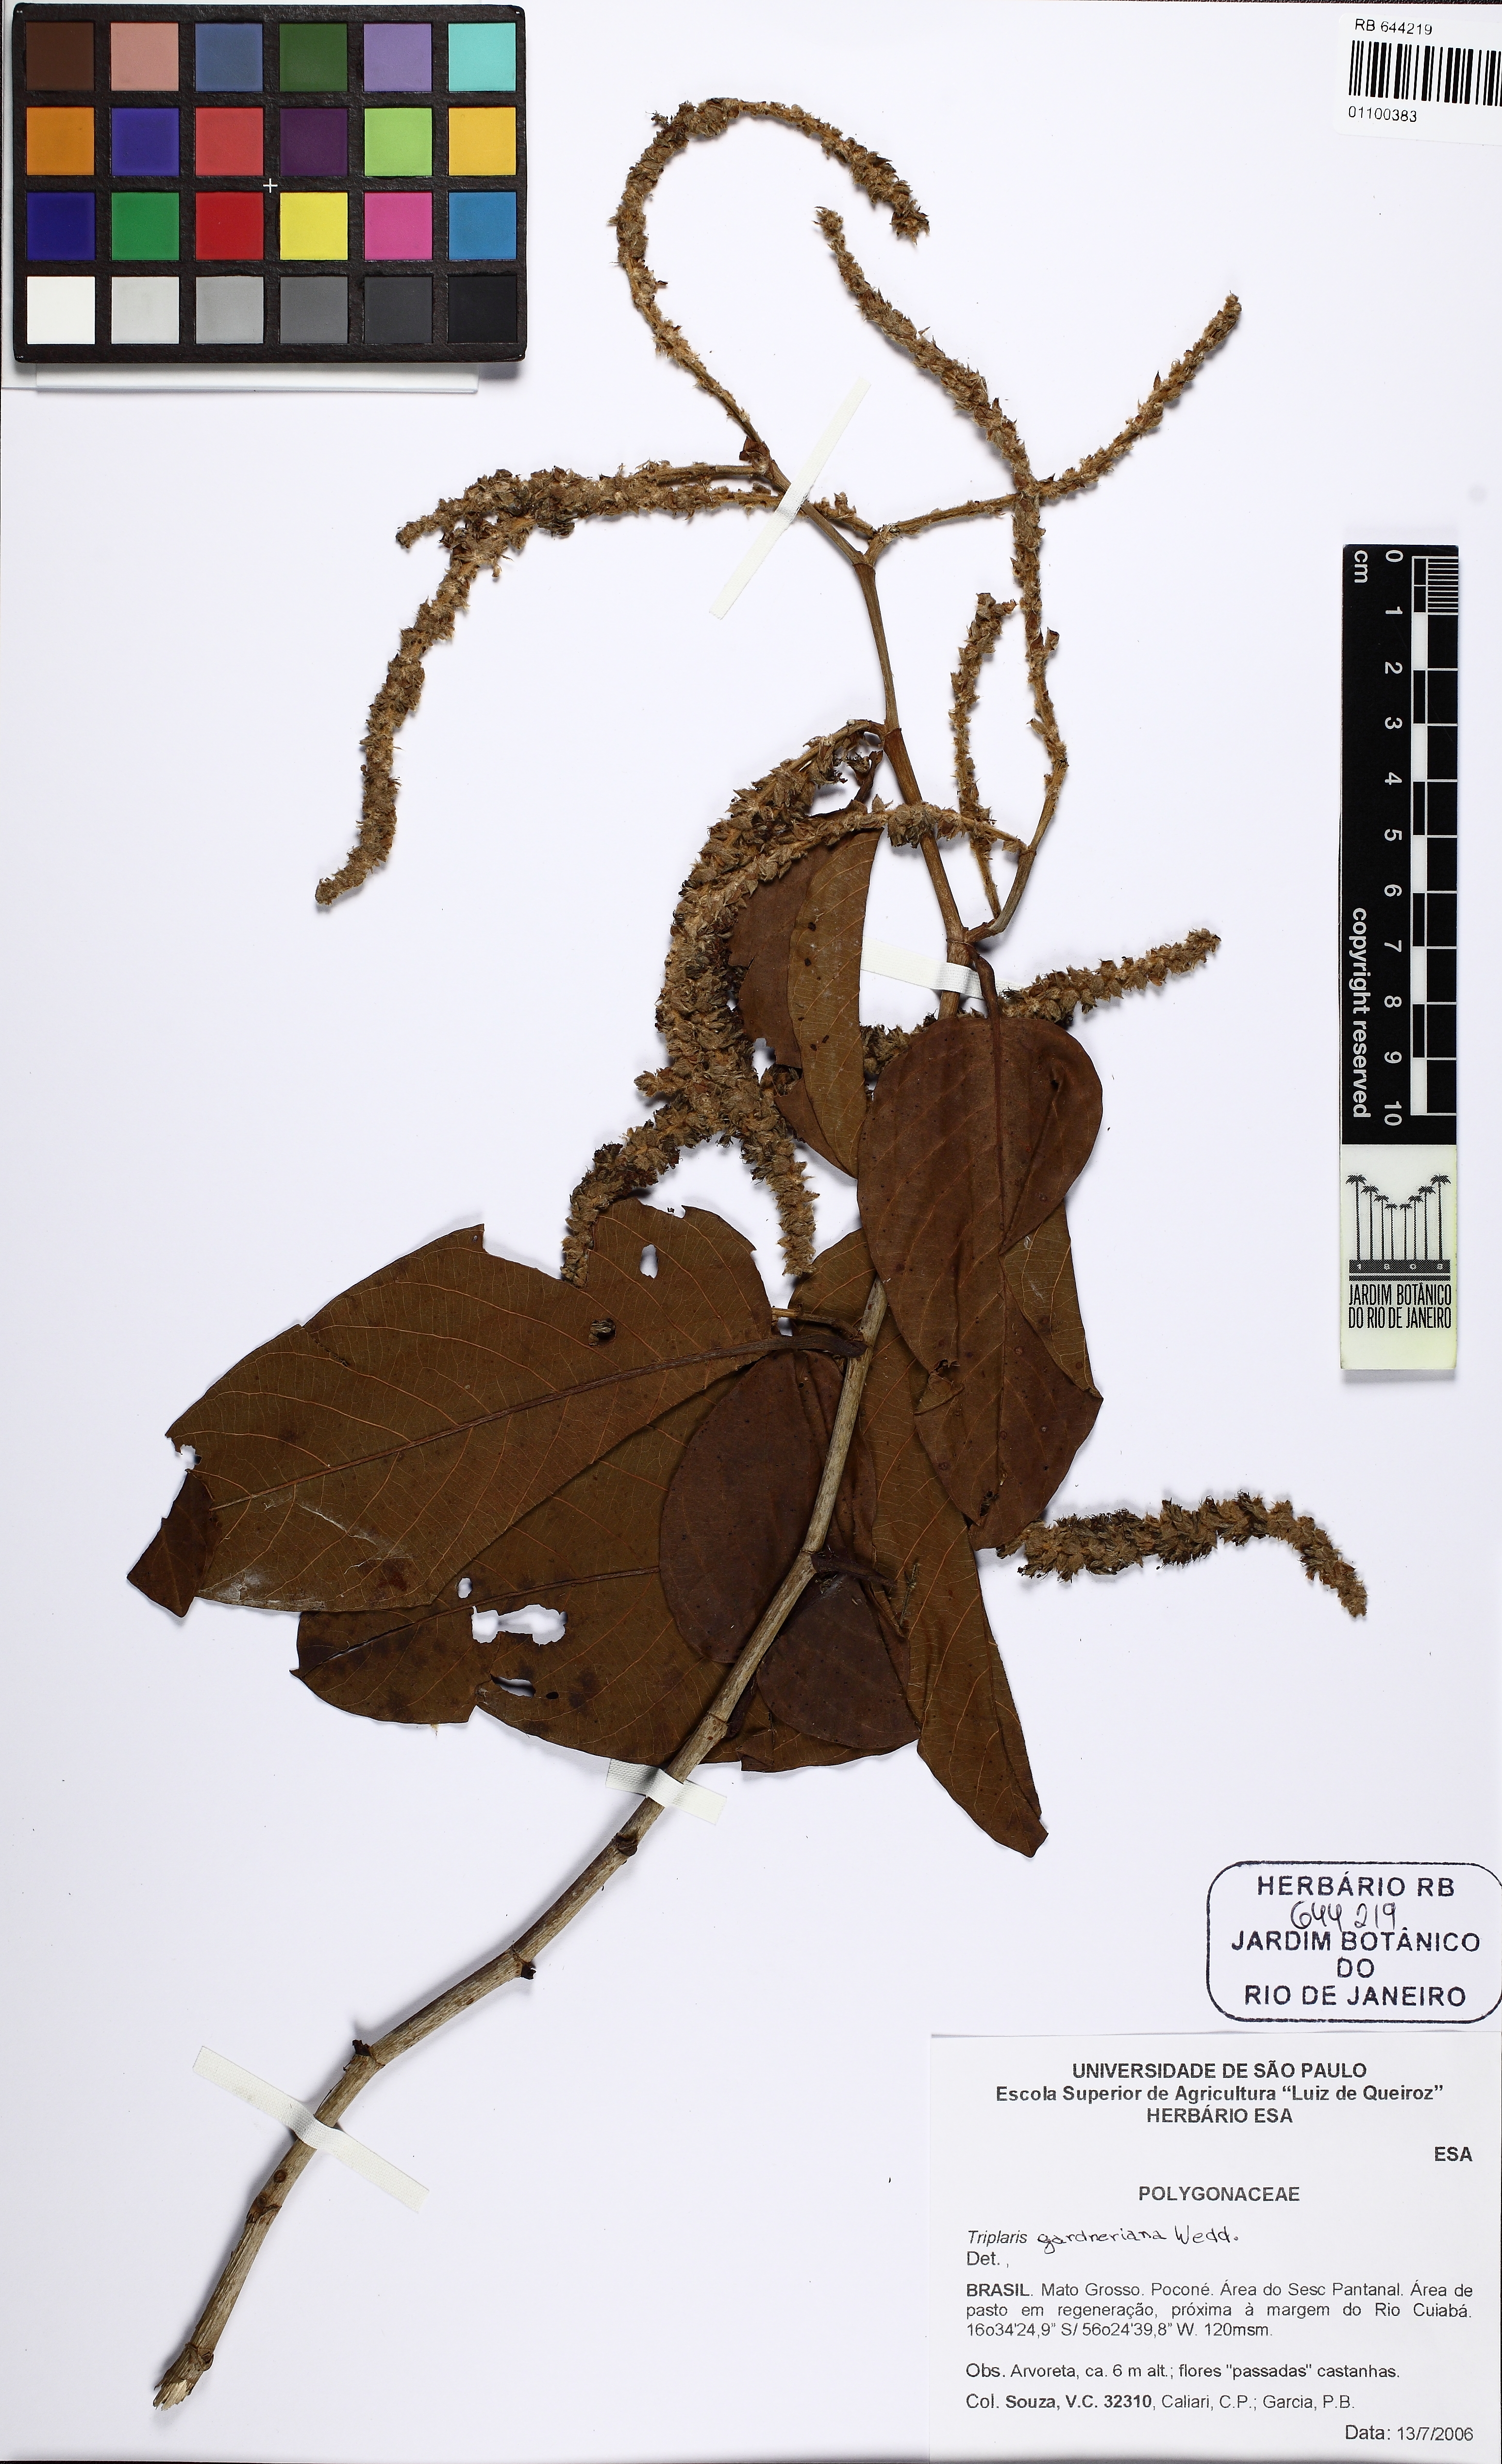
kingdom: Plantae
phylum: Tracheophyta
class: Magnoliopsida
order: Caryophyllales
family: Polygonaceae
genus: Triplaris
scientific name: Triplaris gardneriana
